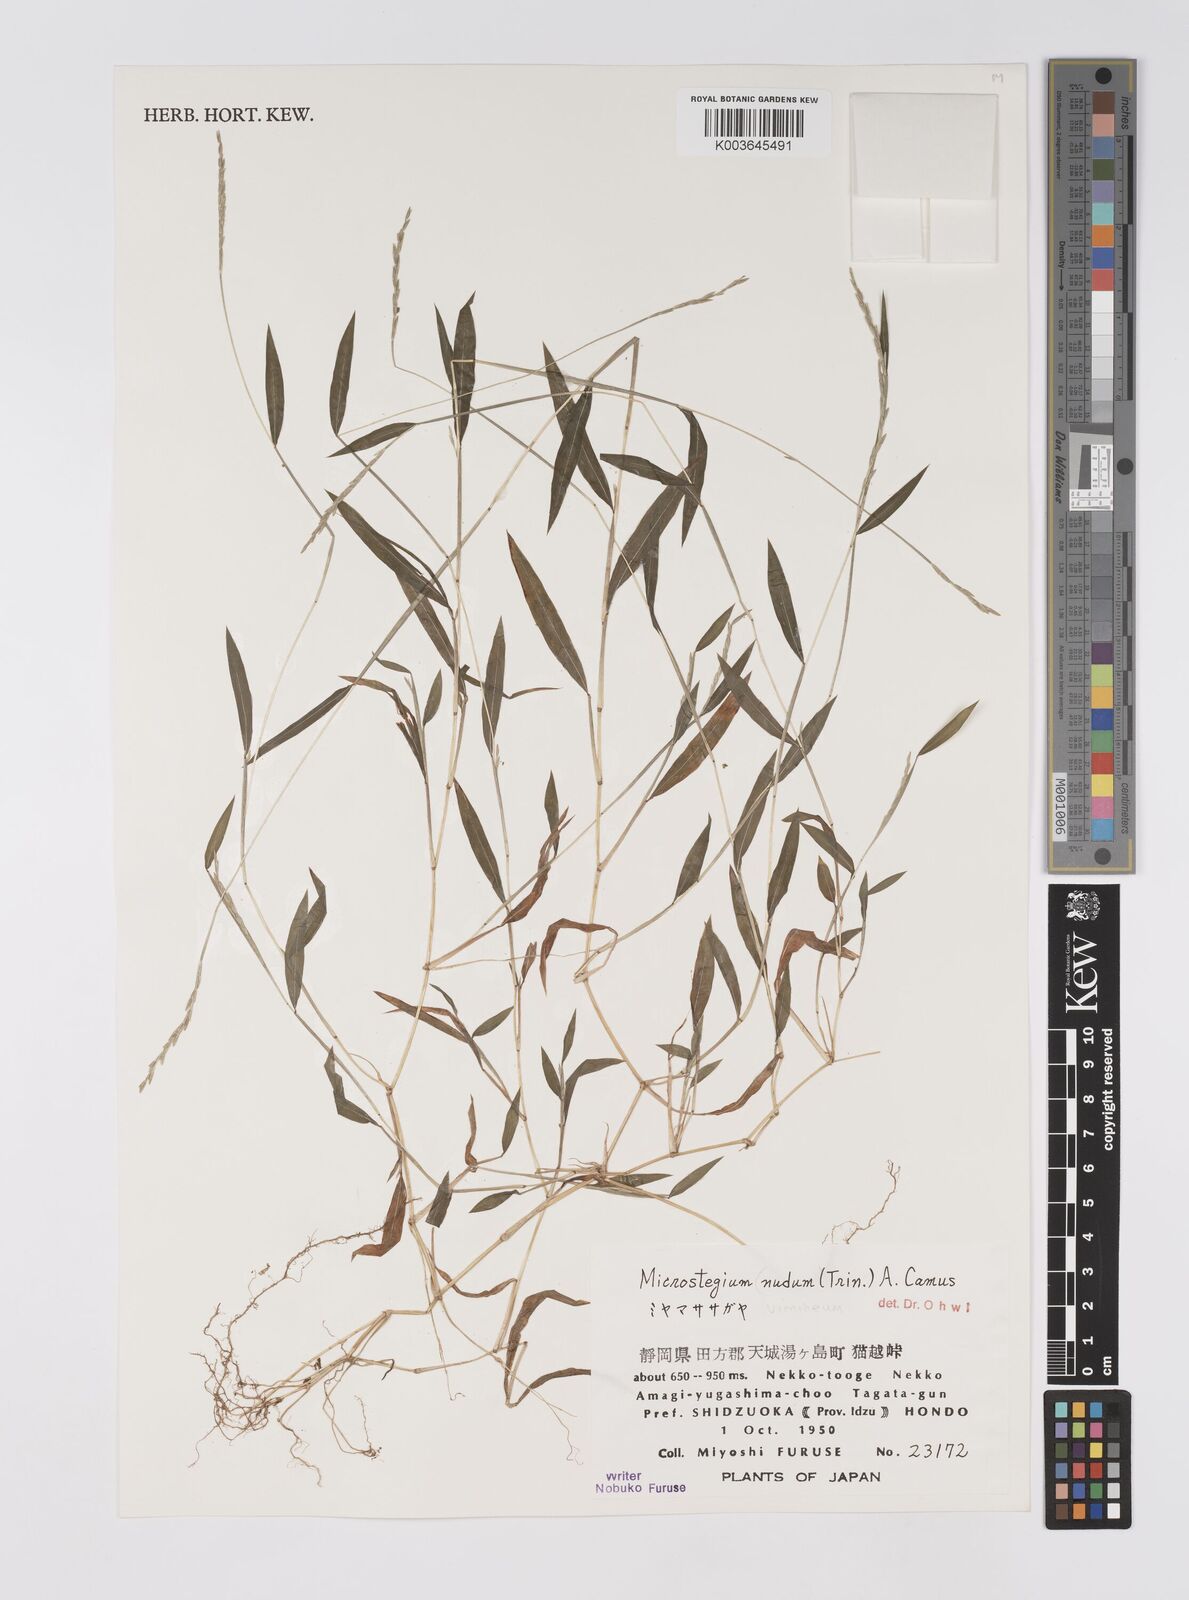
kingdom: Plantae
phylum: Tracheophyta
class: Liliopsida
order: Poales
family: Poaceae
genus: Microstegium
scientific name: Microstegium vimineum
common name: Japanese stiltgrass
